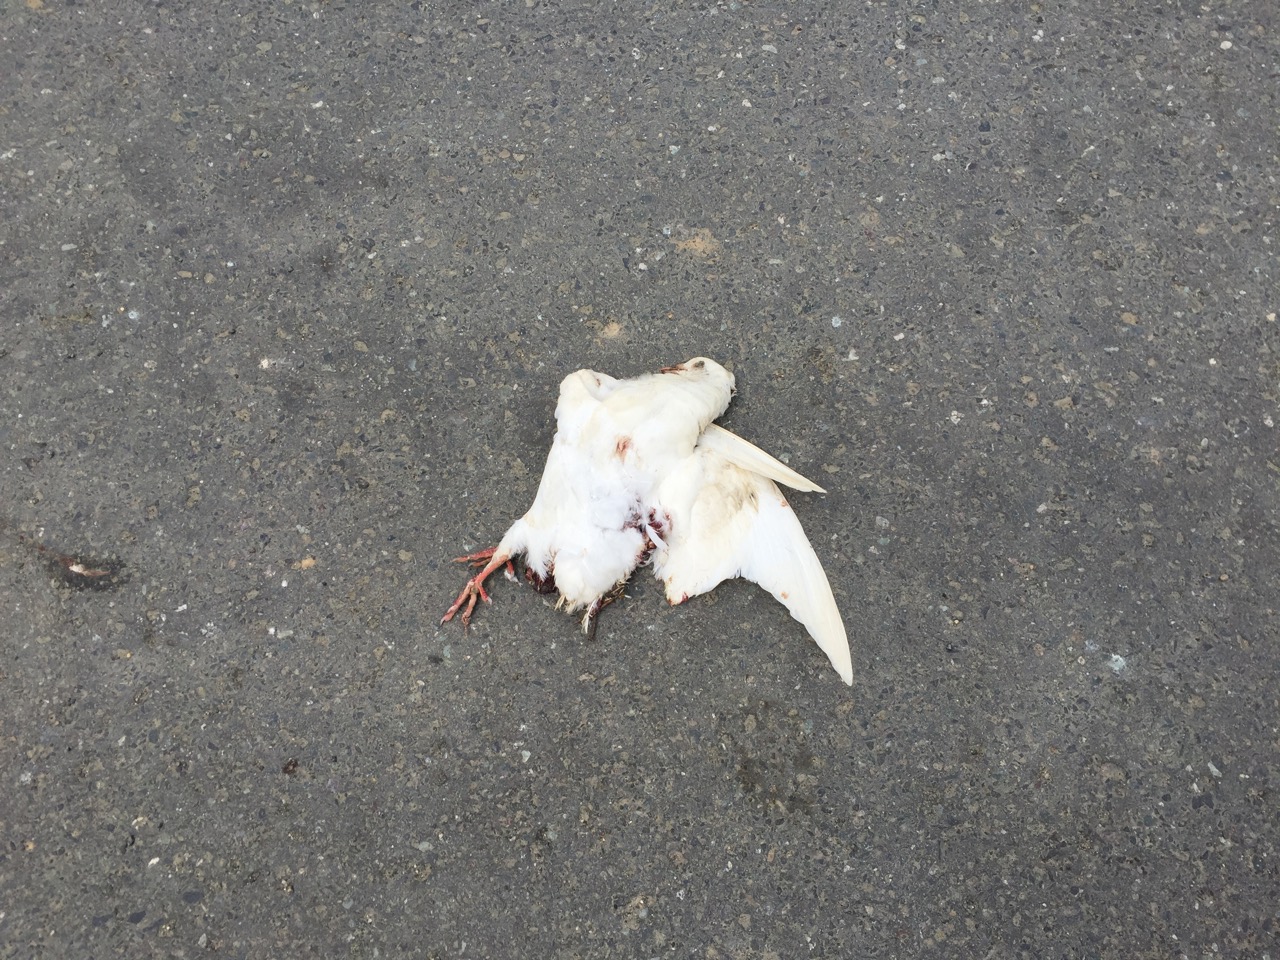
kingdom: Animalia
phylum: Chordata
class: Aves
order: Columbiformes
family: Columbidae
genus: Columba
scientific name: Columba livia
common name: Rock pigeon
